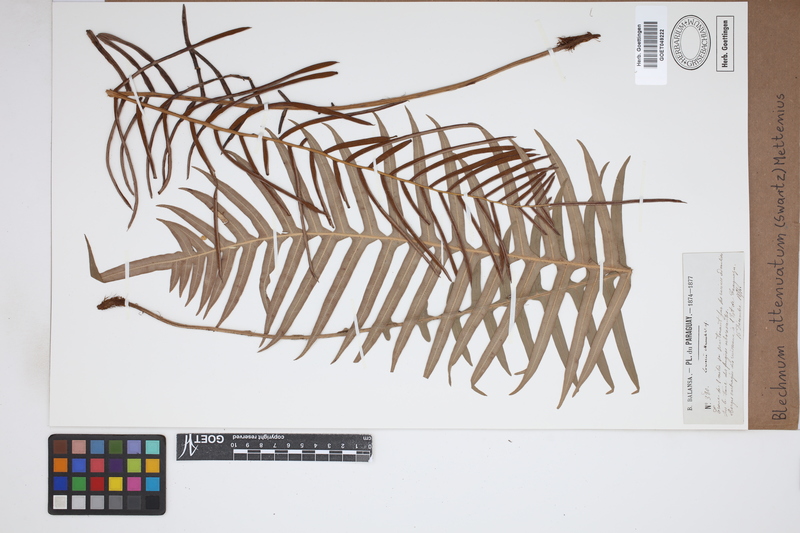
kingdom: Plantae
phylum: Tracheophyta
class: Polypodiopsida
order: Polypodiales
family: Blechnaceae
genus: Lomaridium
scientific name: Lomaridium attenuatum
